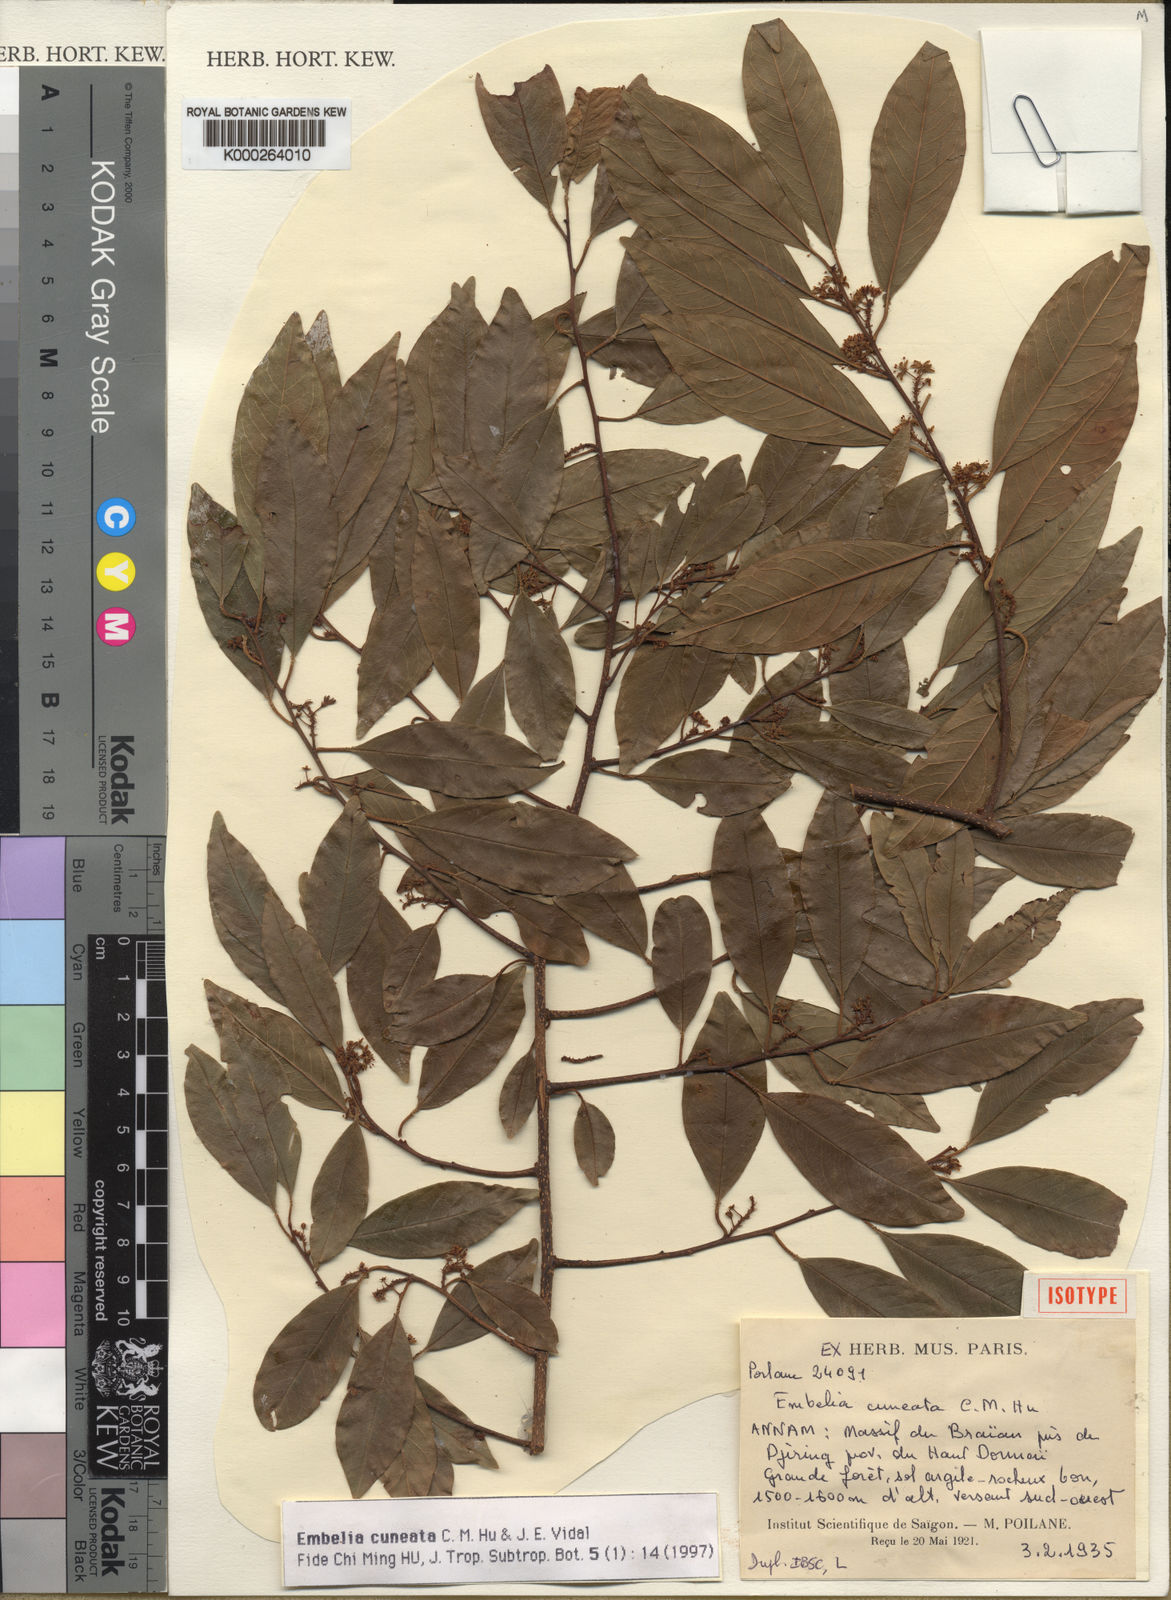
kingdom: Plantae
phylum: Tracheophyta
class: Magnoliopsida
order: Ericales
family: Primulaceae
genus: Embelia
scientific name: Embelia cuneata
